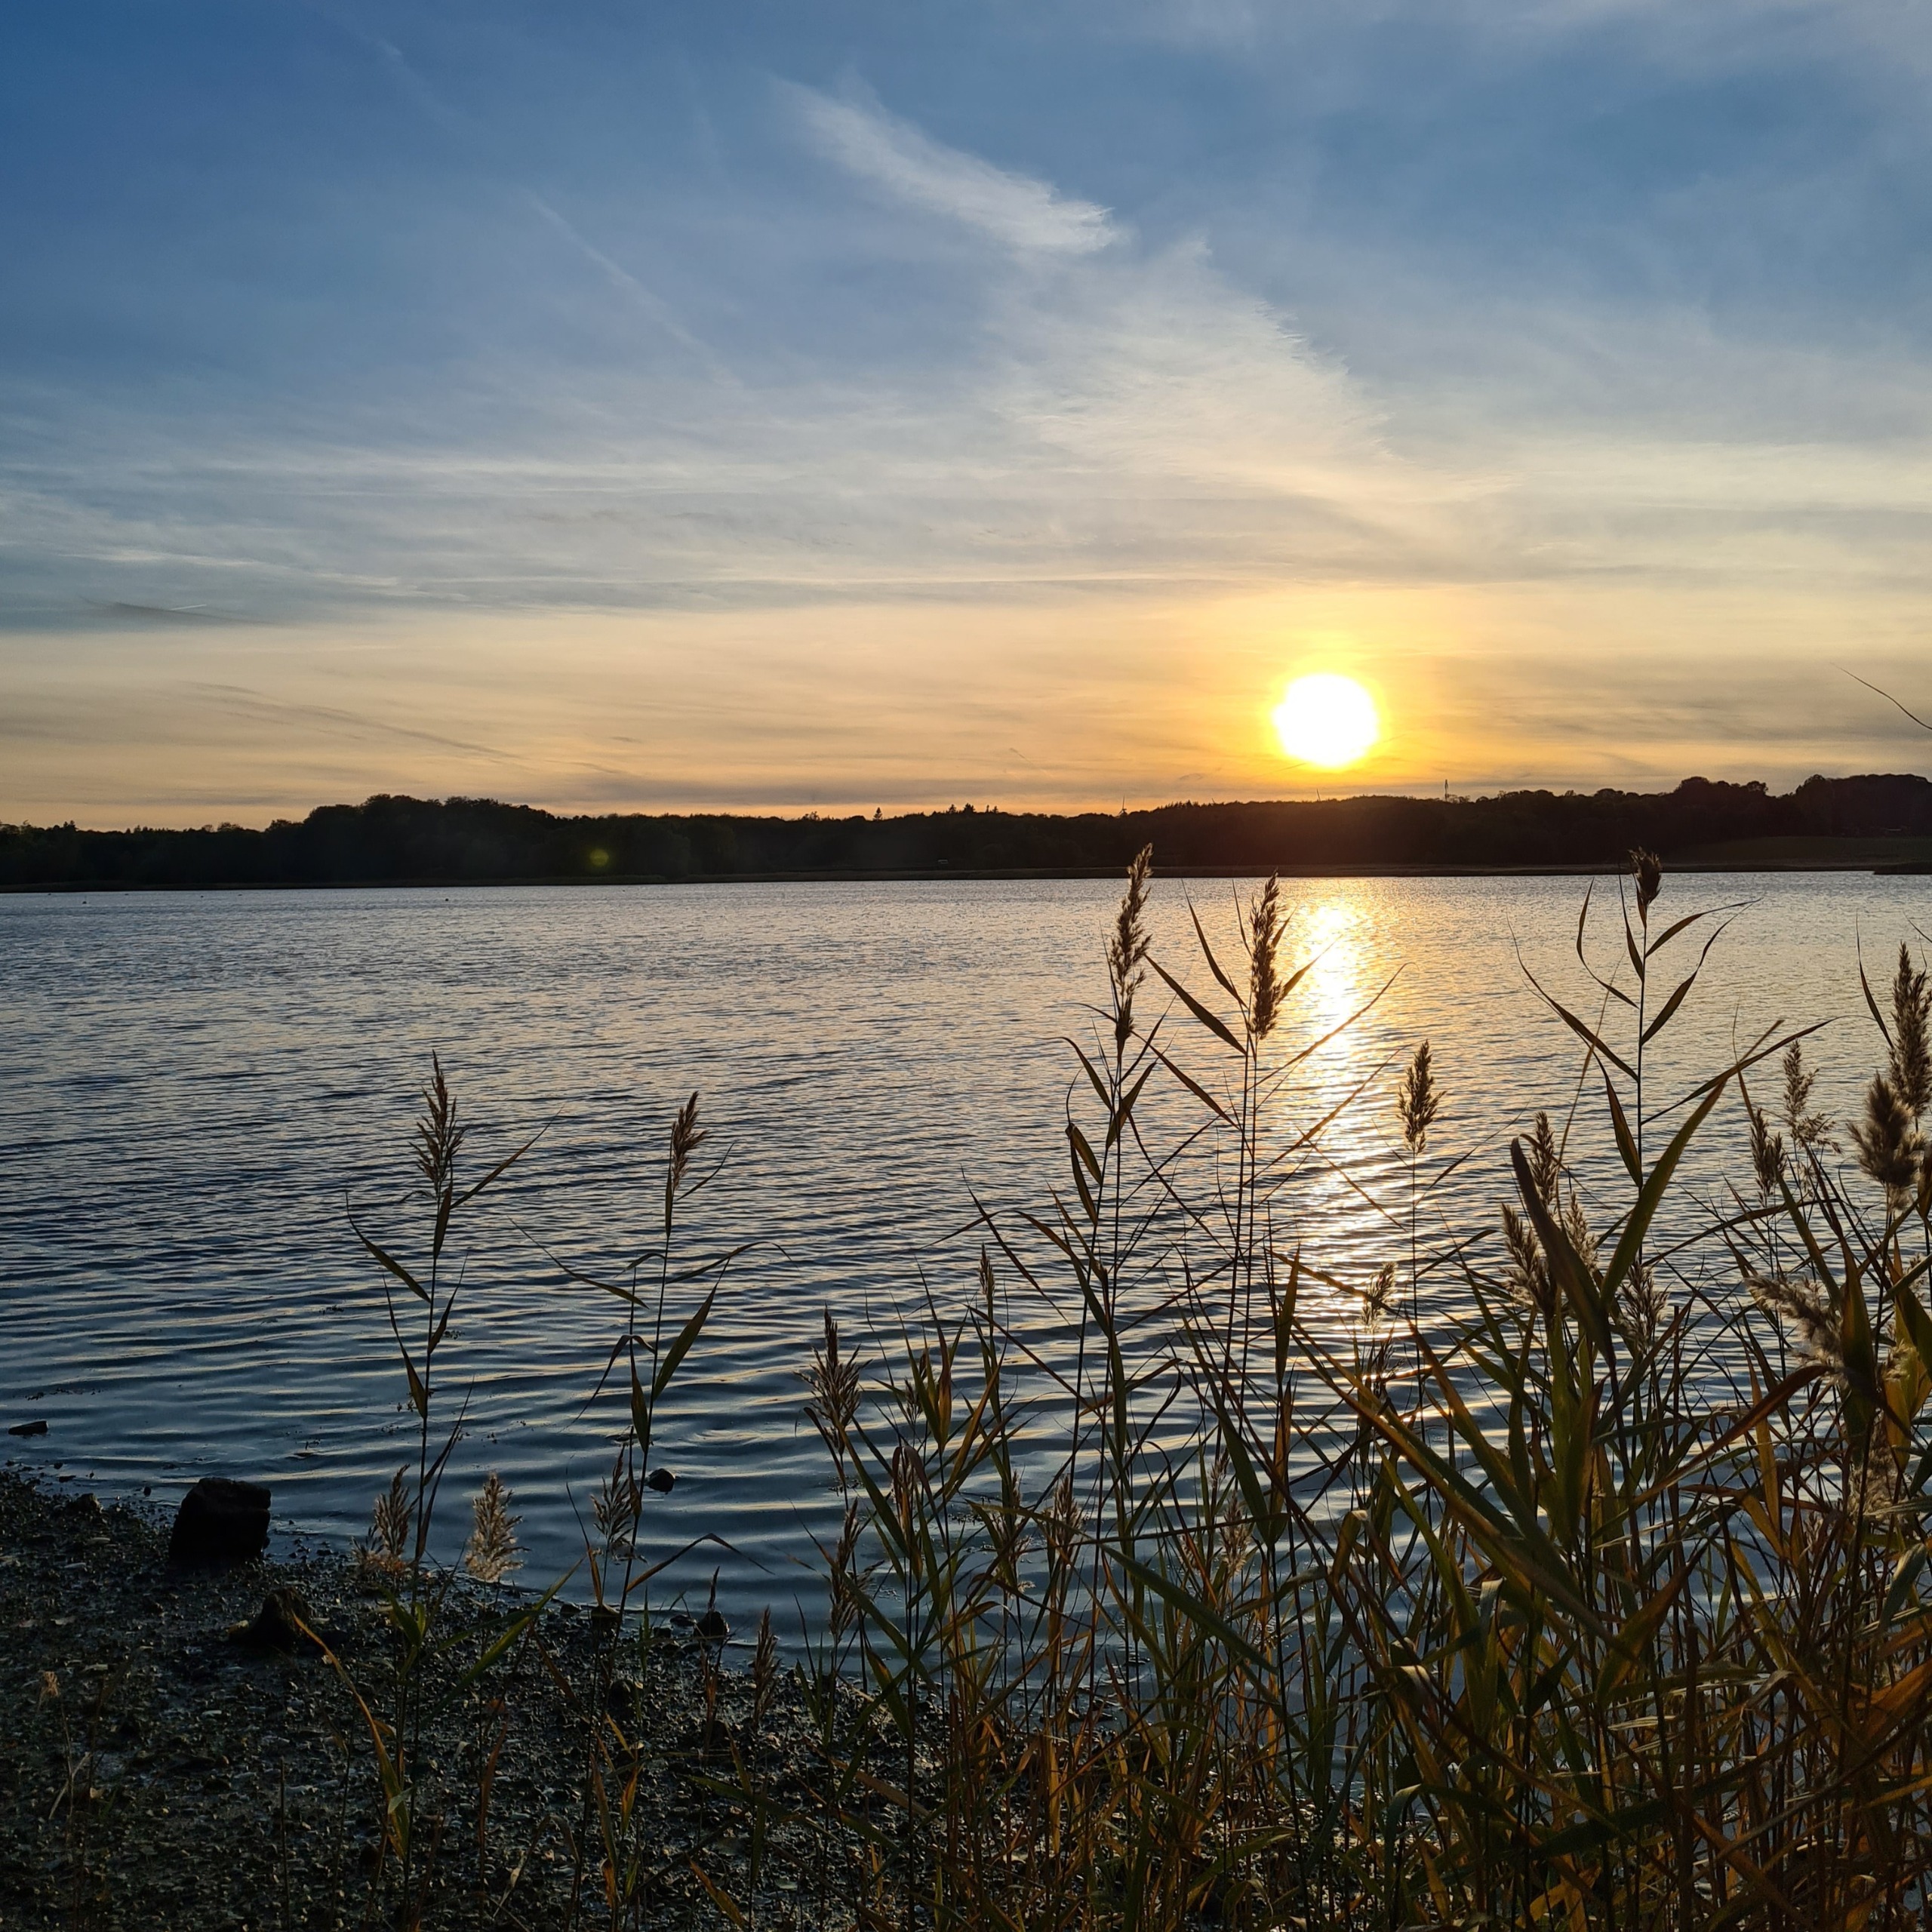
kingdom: Plantae
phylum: Tracheophyta
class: Liliopsida
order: Poales
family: Poaceae
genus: Phragmites
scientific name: Phragmites australis
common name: Tagrør
